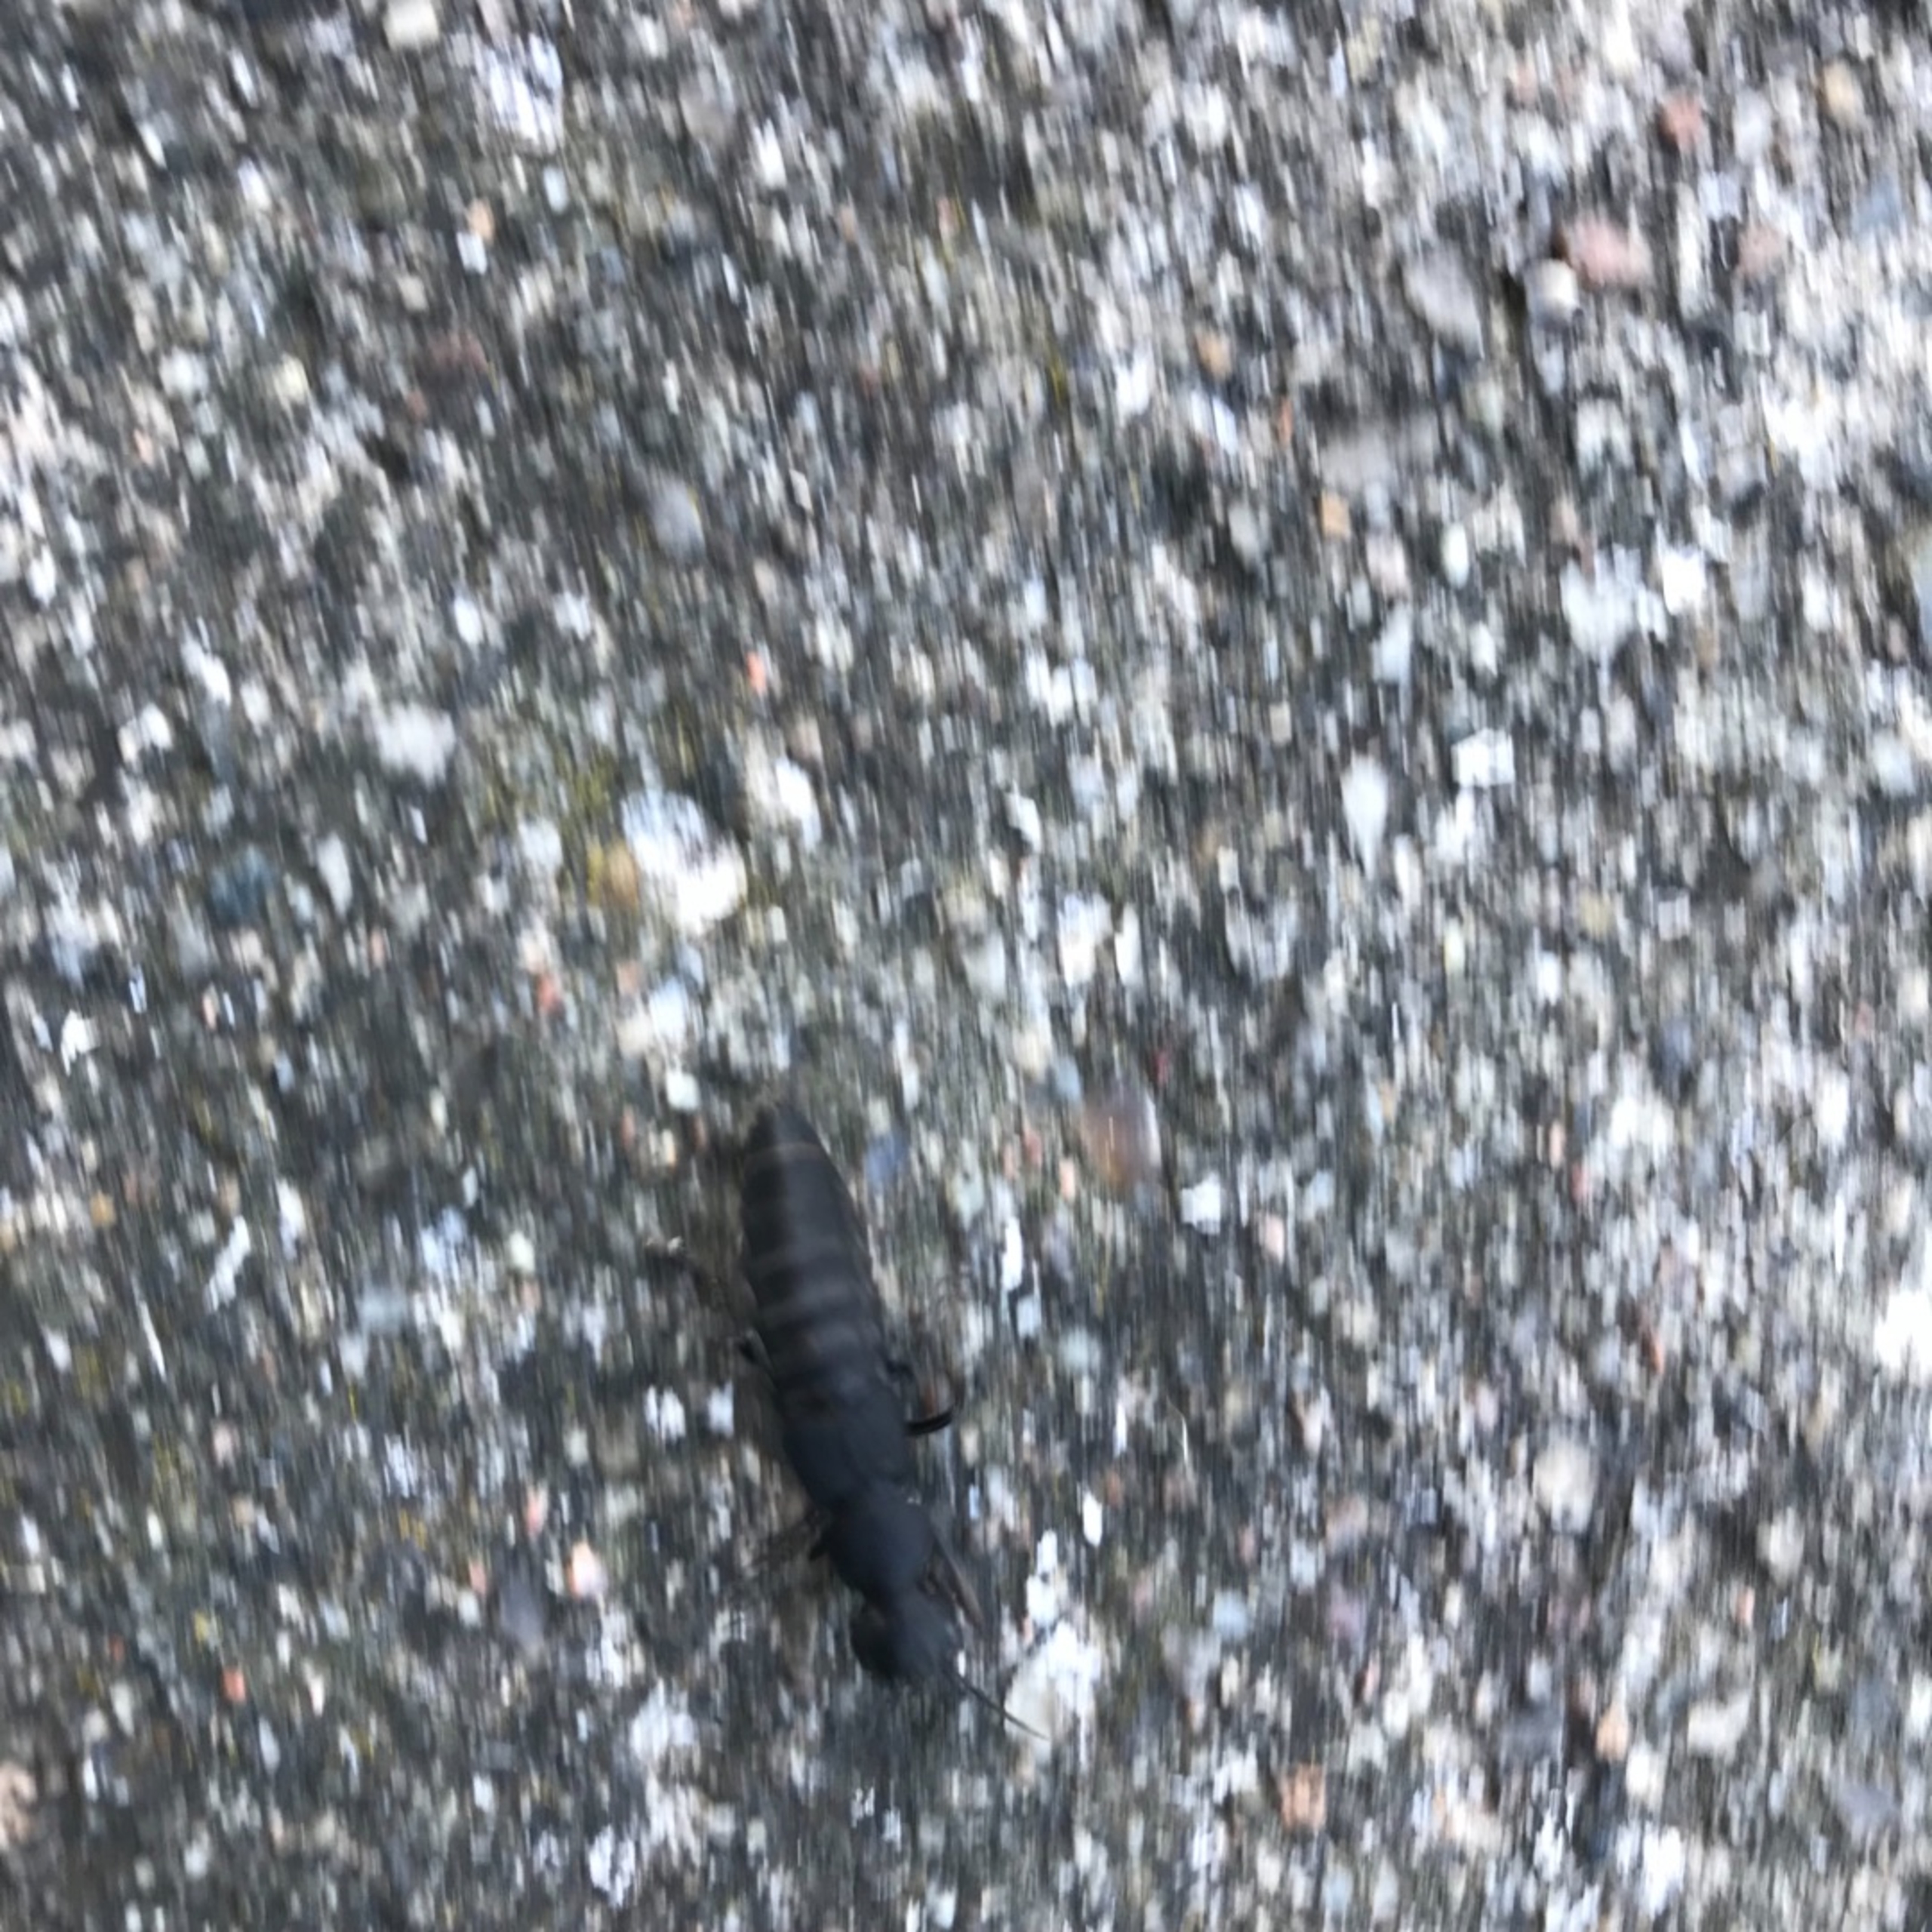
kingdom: Animalia
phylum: Arthropoda
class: Insecta
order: Coleoptera
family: Staphylinidae
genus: Ocypus
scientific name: Ocypus olens
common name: Stor rovbille
